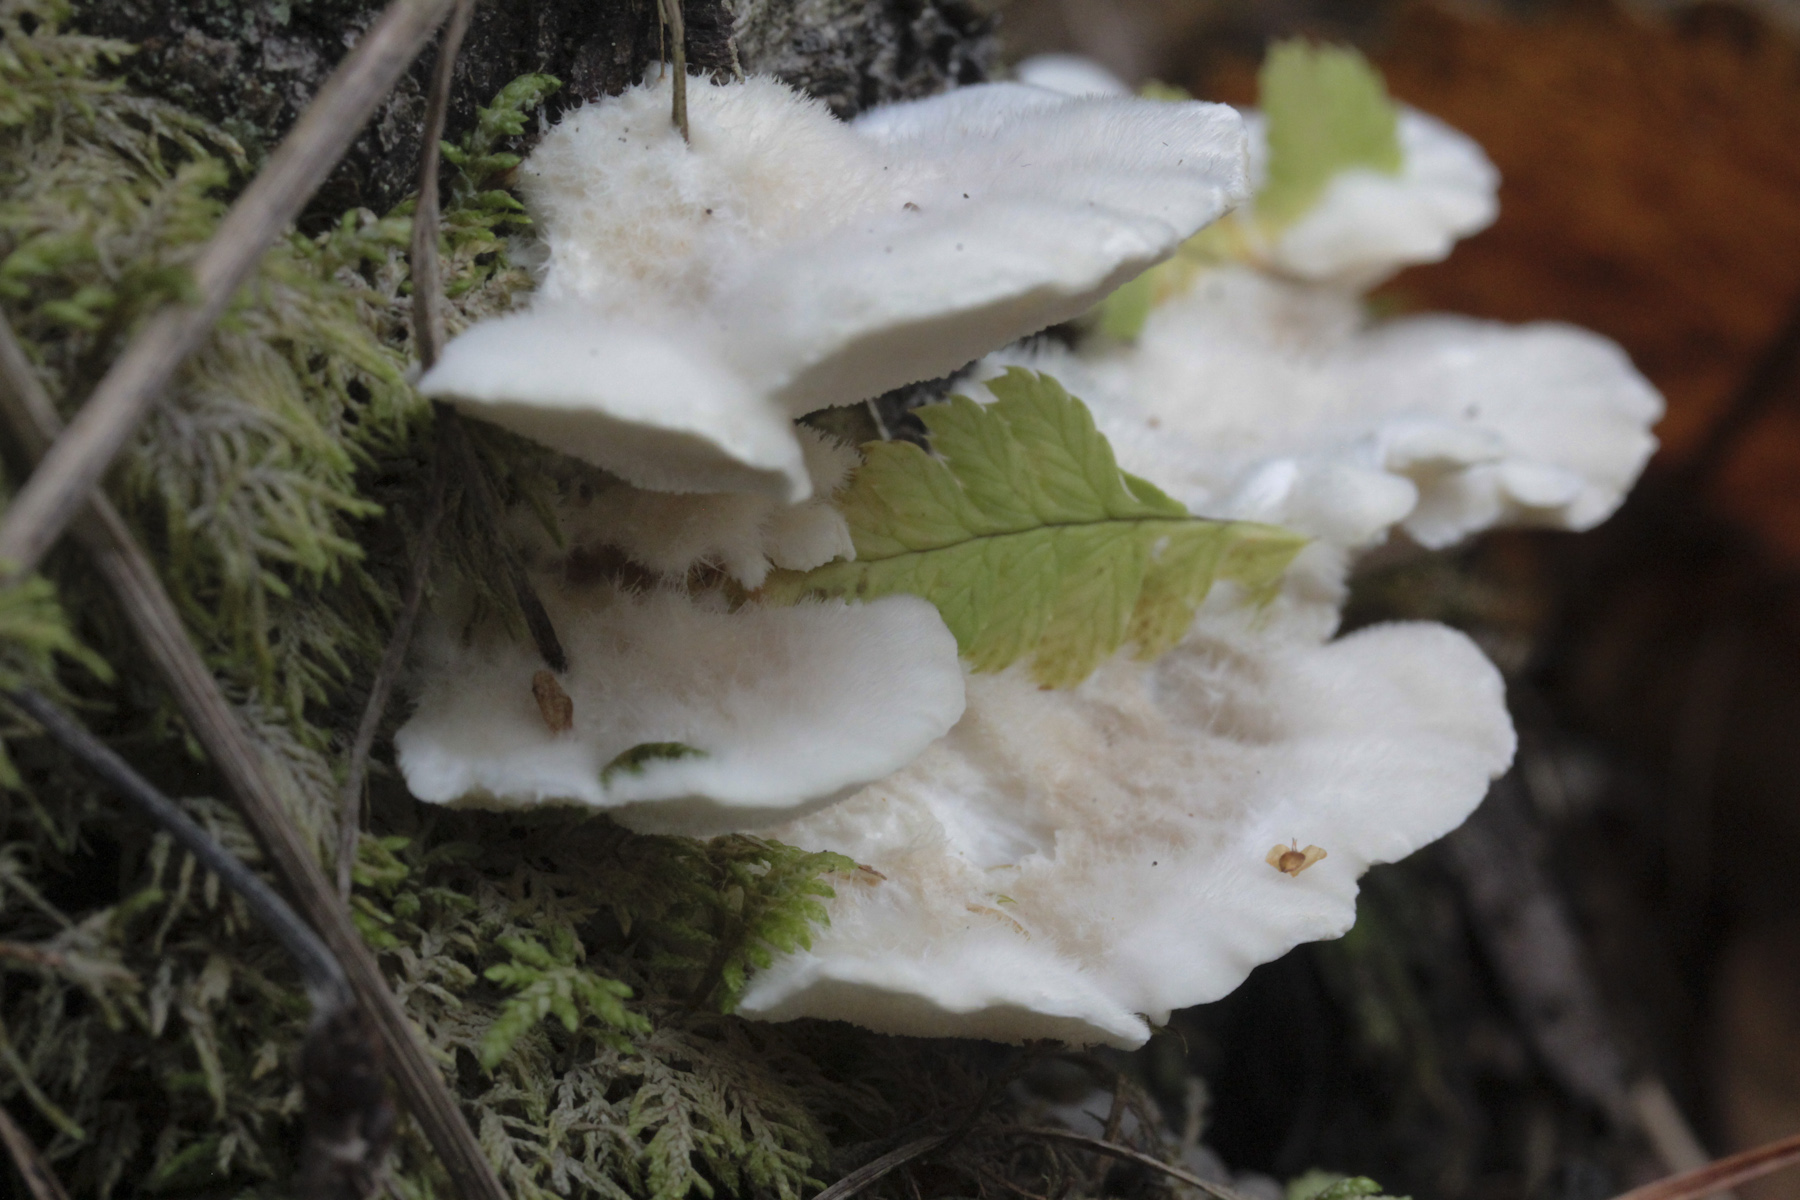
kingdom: Fungi
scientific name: Fungi
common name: Fungi
